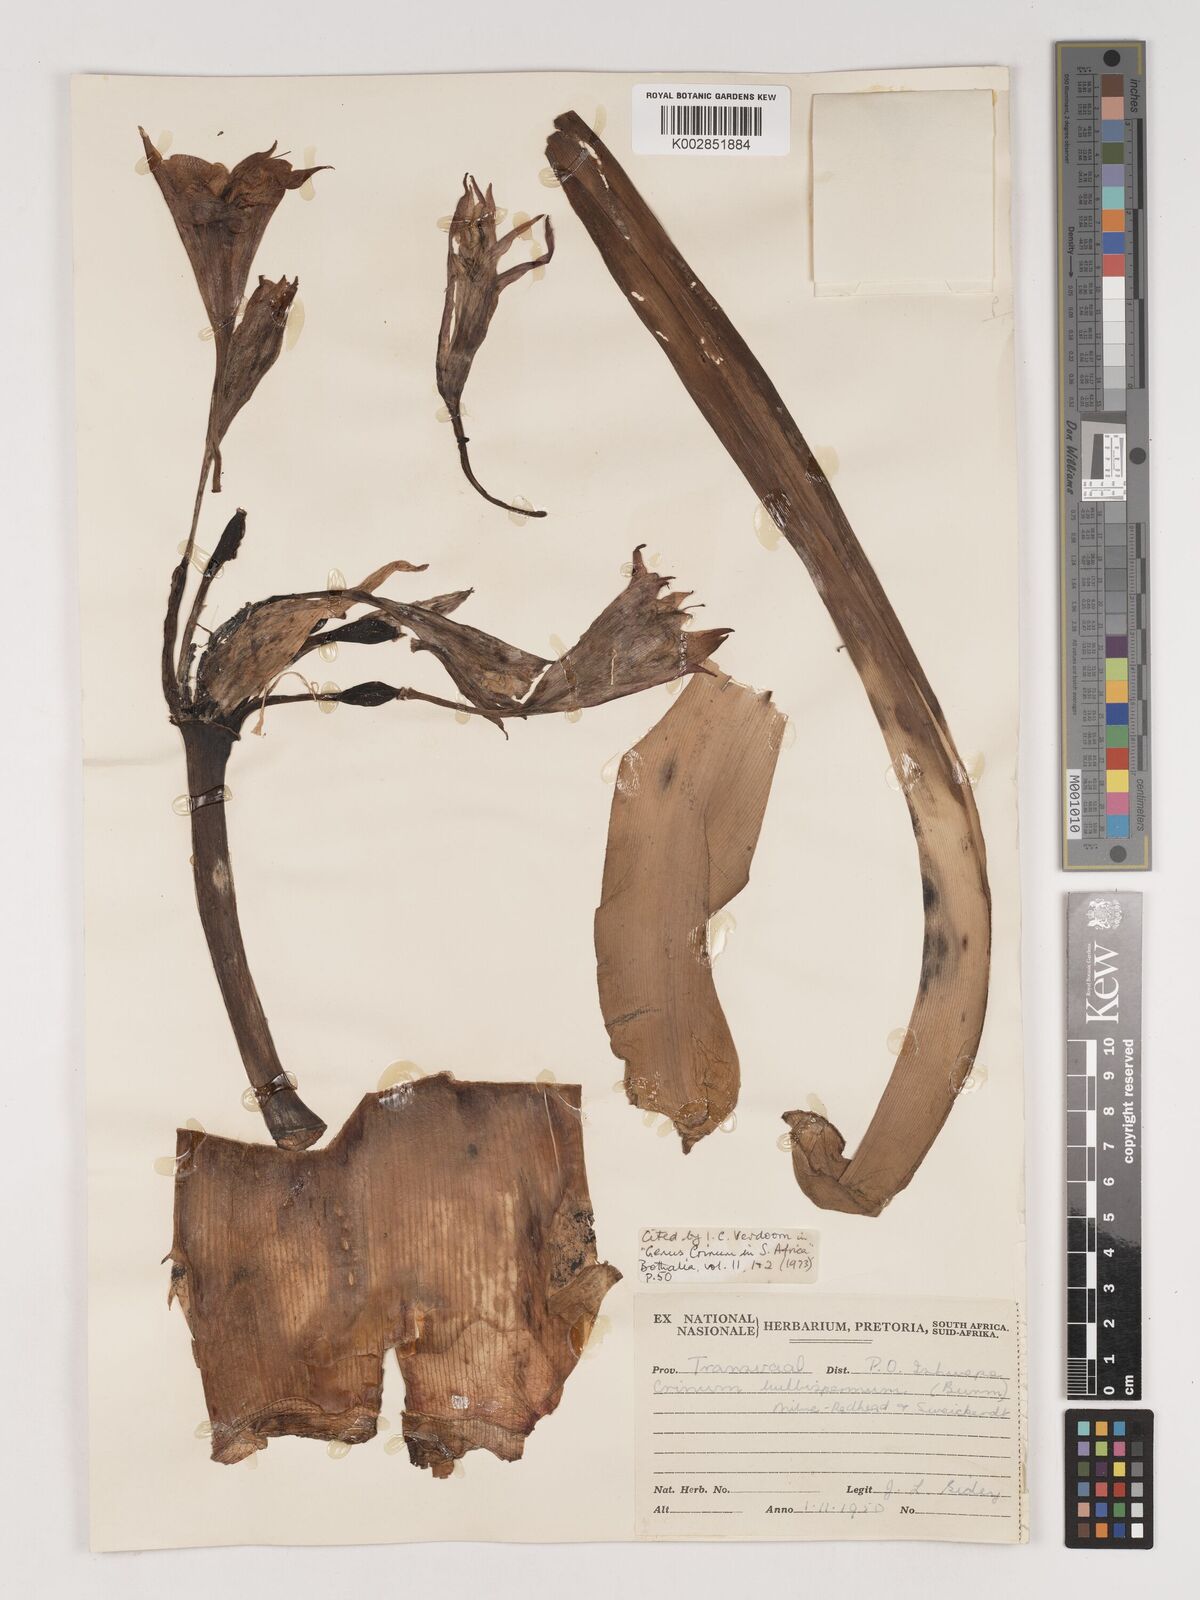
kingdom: Plantae
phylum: Tracheophyta
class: Liliopsida
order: Asparagales
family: Amaryllidaceae
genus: Crinum
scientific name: Crinum bulbispermum
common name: Hardy swamplily
